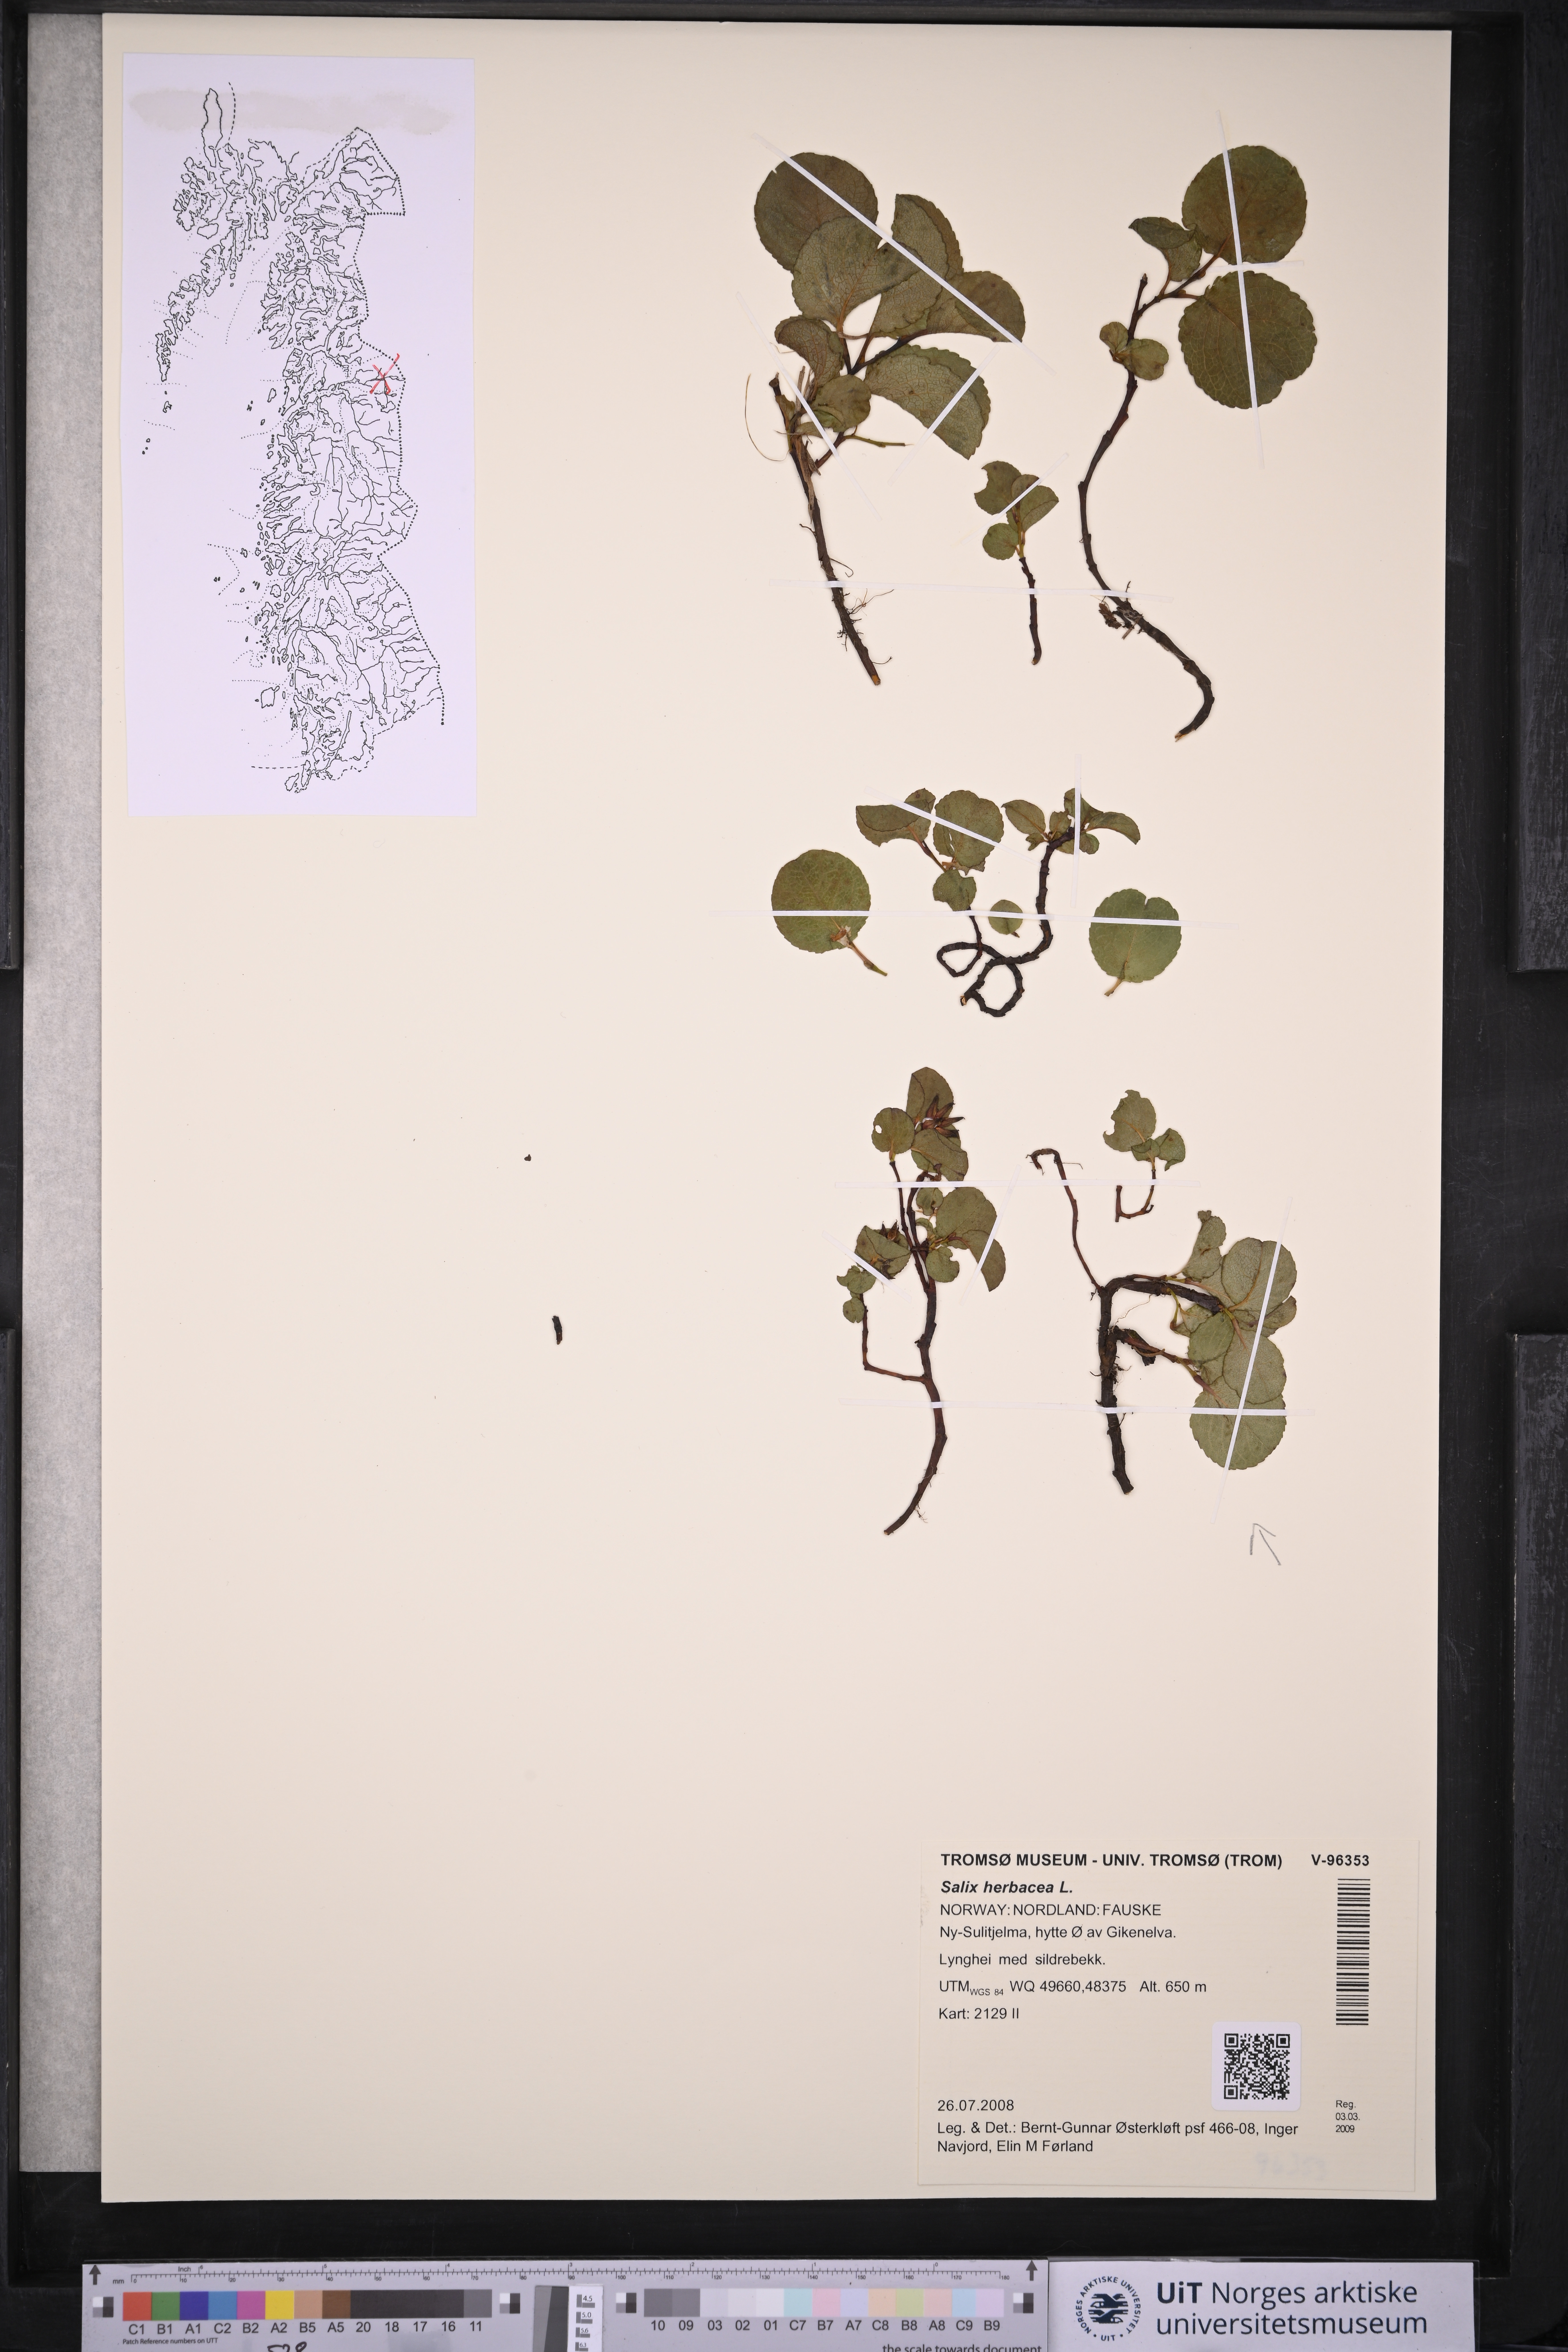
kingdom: Plantae
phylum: Tracheophyta
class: Magnoliopsida
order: Malpighiales
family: Salicaceae
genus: Salix
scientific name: Salix herbacea
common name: Dwarf willow
